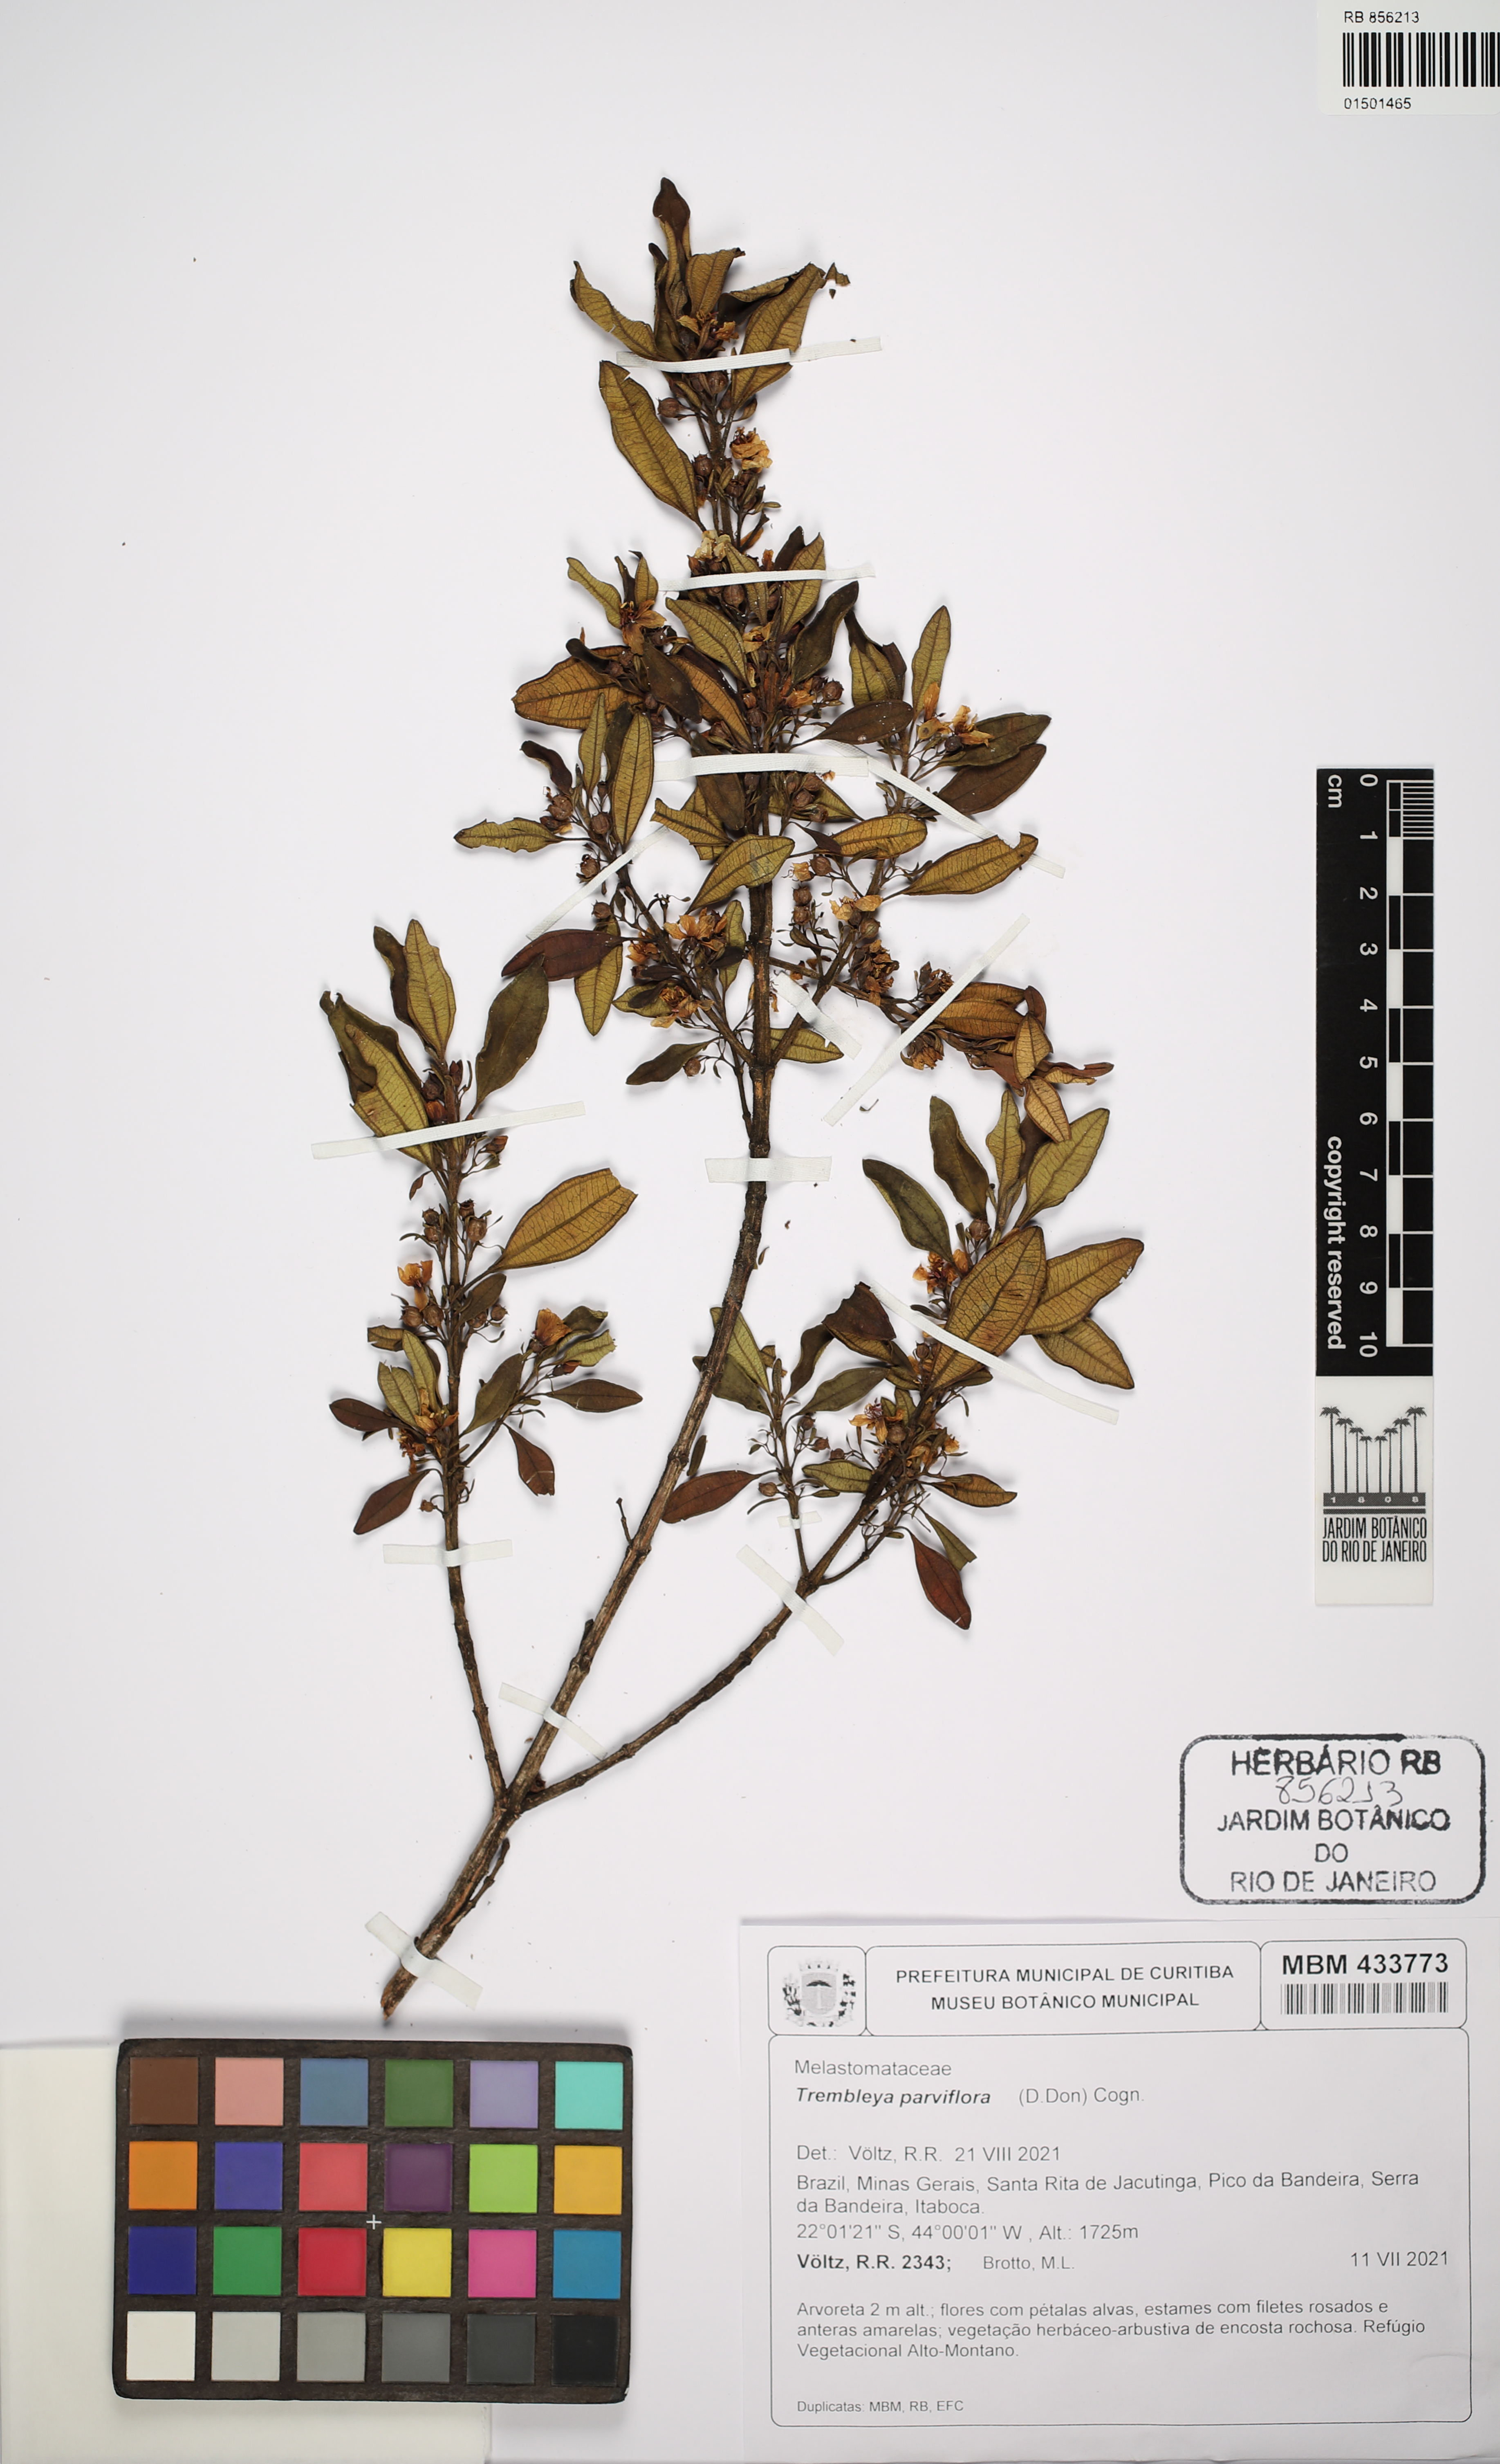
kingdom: Plantae
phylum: Tracheophyta
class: Magnoliopsida
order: Myrtales
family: Melastomataceae
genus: Microlicia
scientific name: Microlicia parviflora
